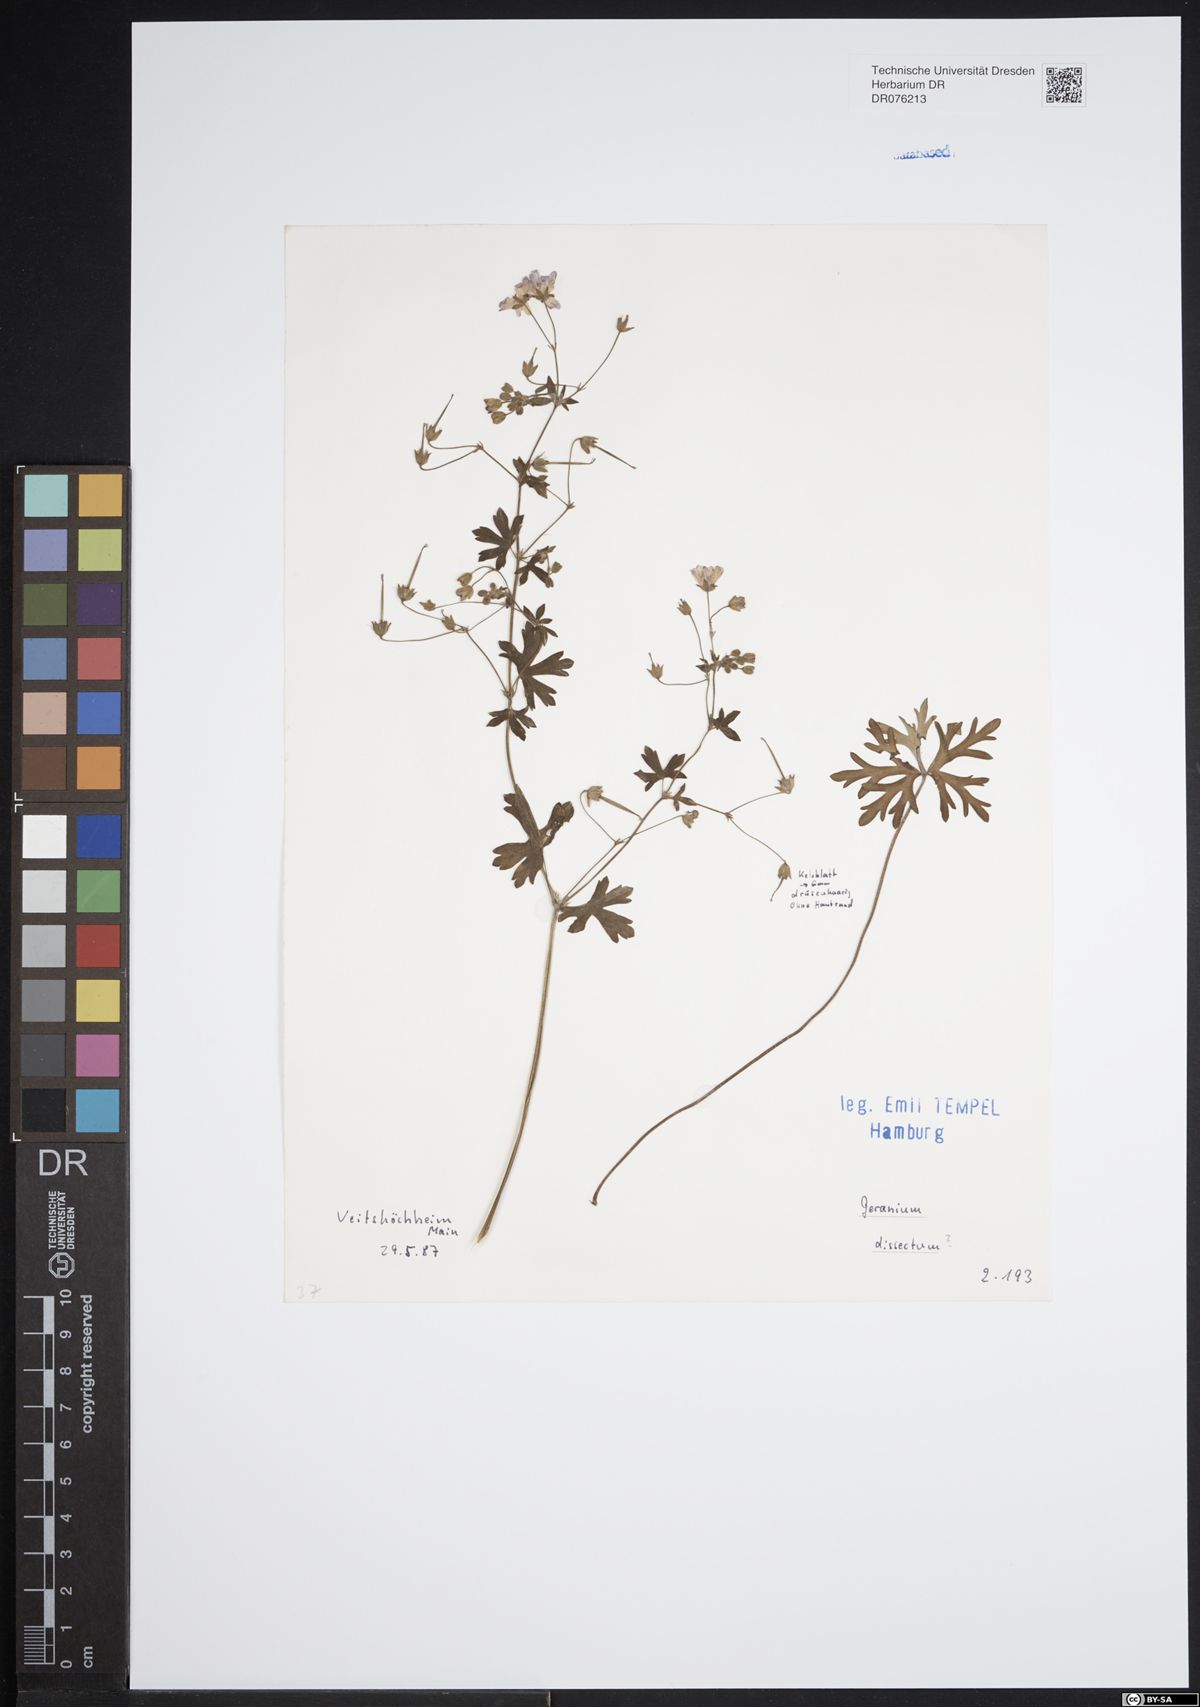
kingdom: Plantae
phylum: Tracheophyta
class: Magnoliopsida
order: Geraniales
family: Geraniaceae
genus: Geranium
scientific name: Geranium dissectum
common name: Cut-leaved crane's-bill
